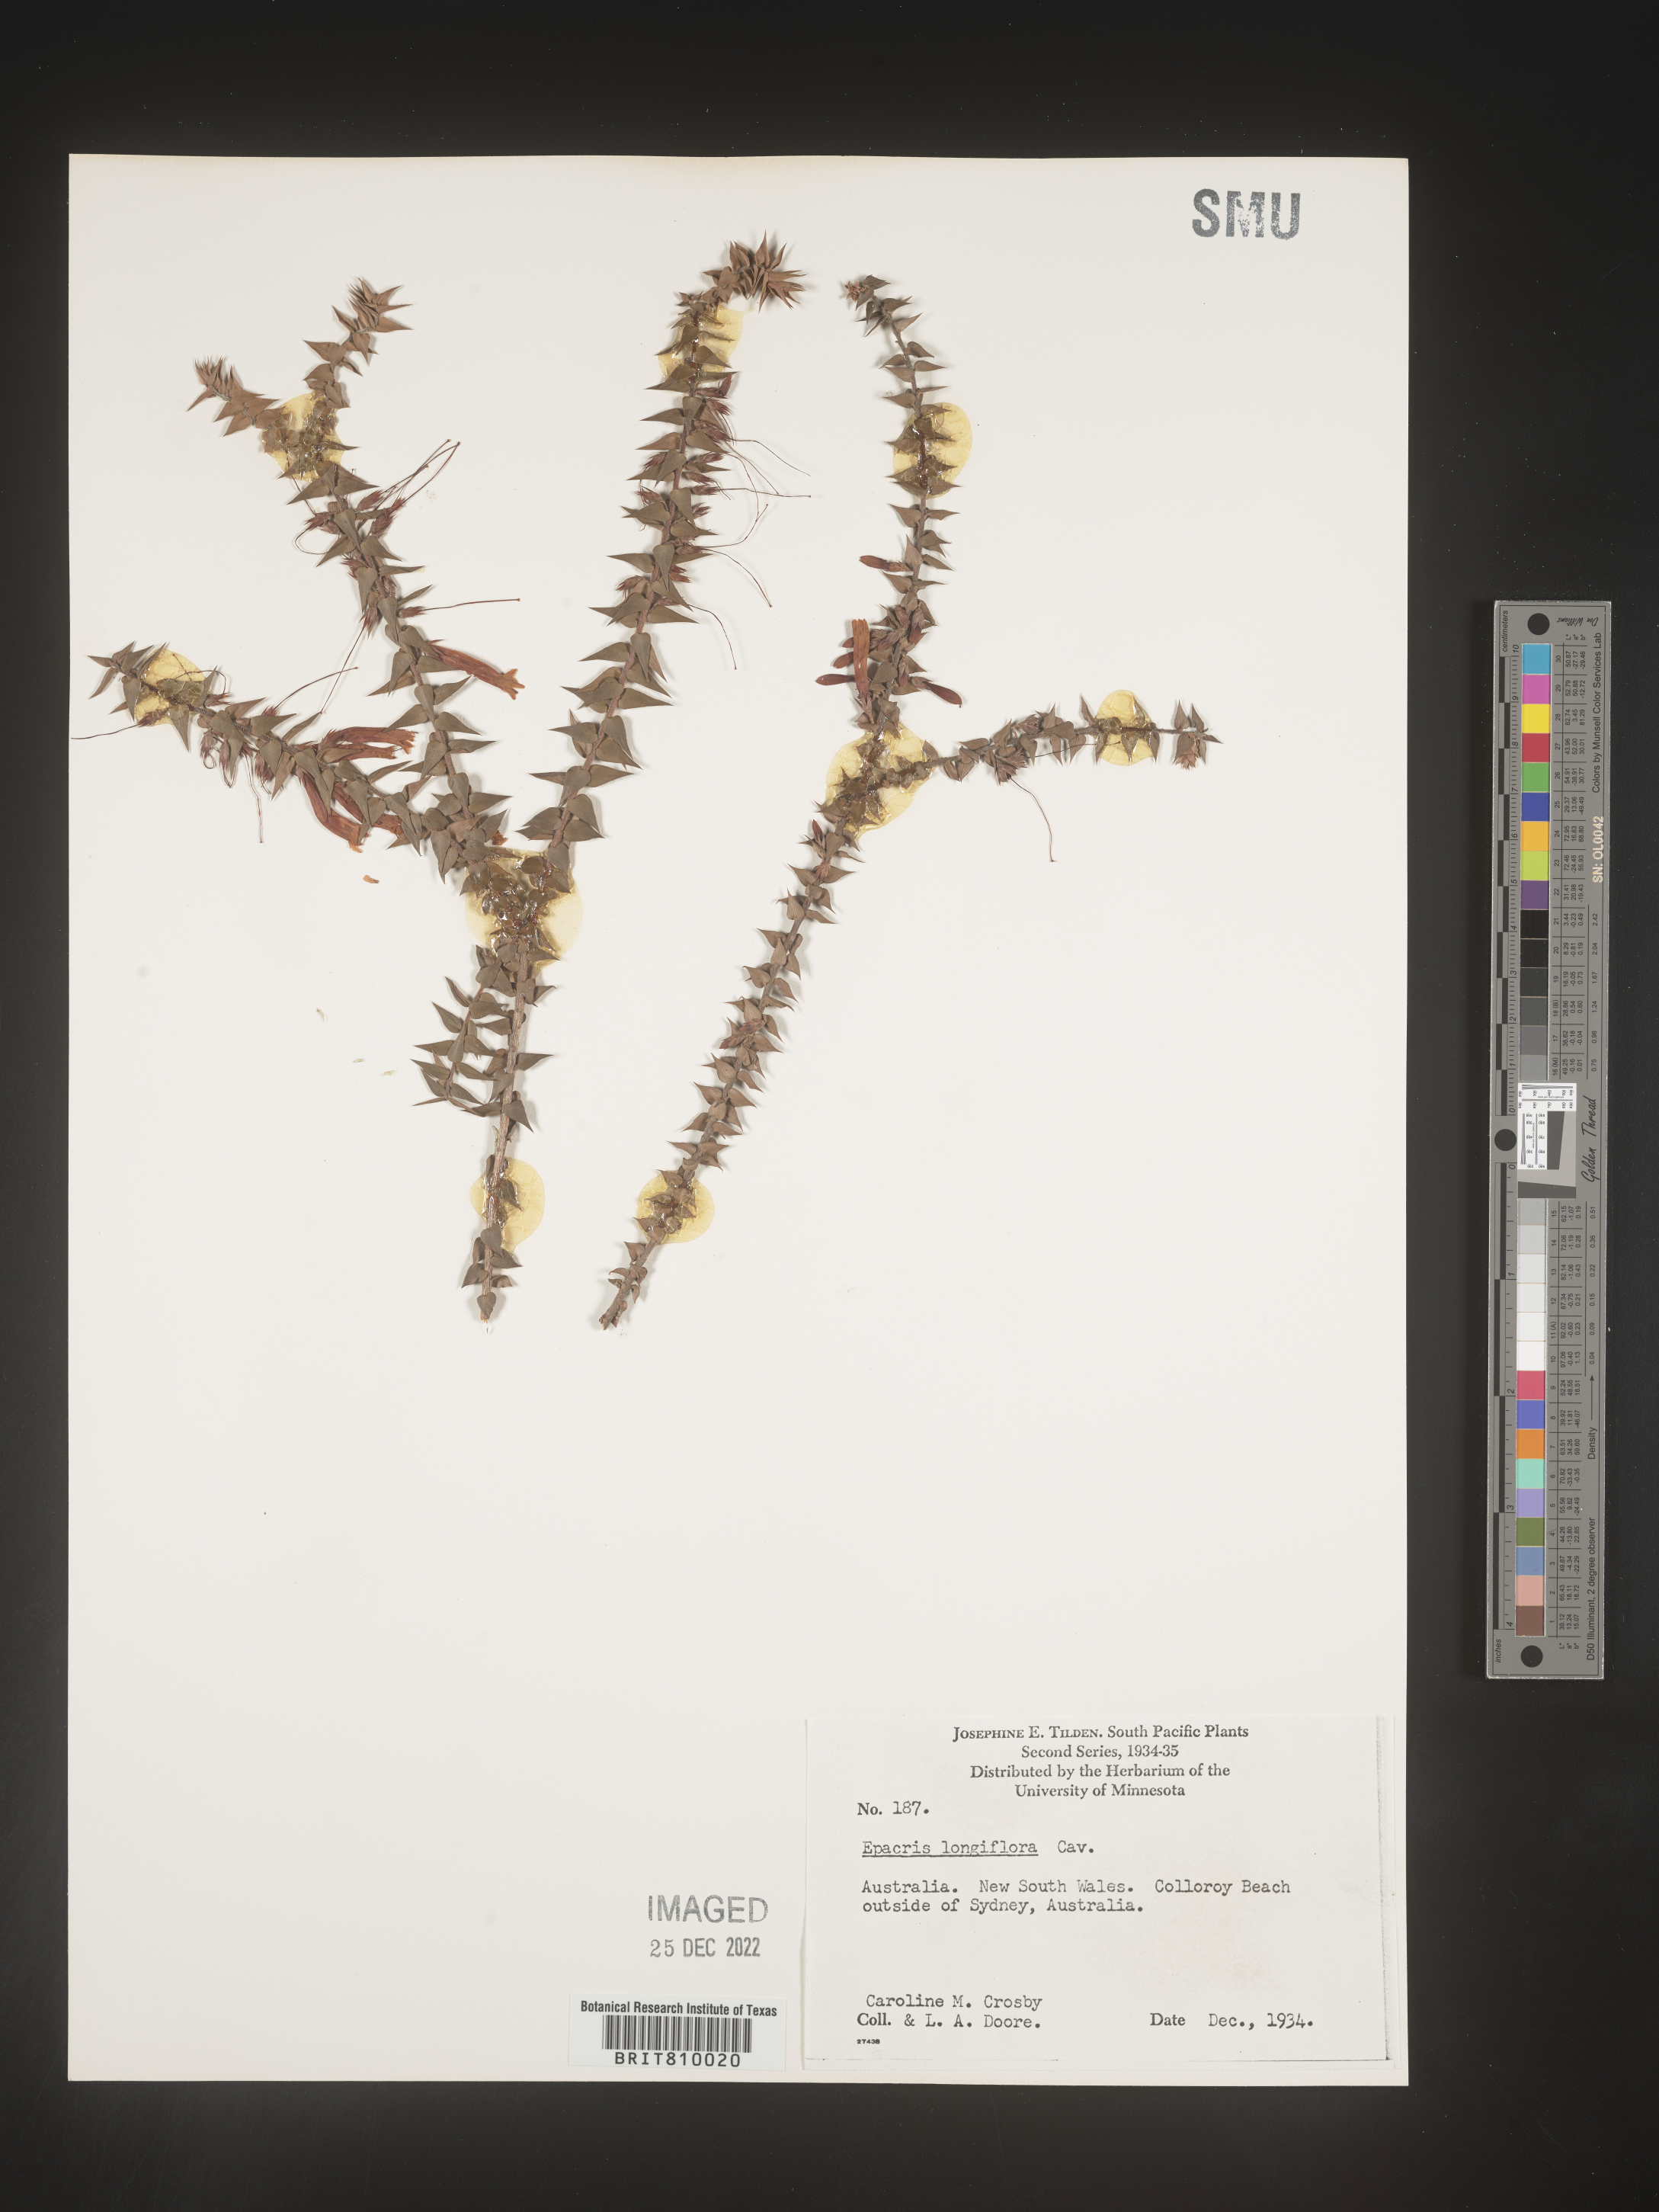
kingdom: Plantae
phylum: Tracheophyta
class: Magnoliopsida
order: Ericales
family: Ericaceae
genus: Epacris
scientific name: Epacris
